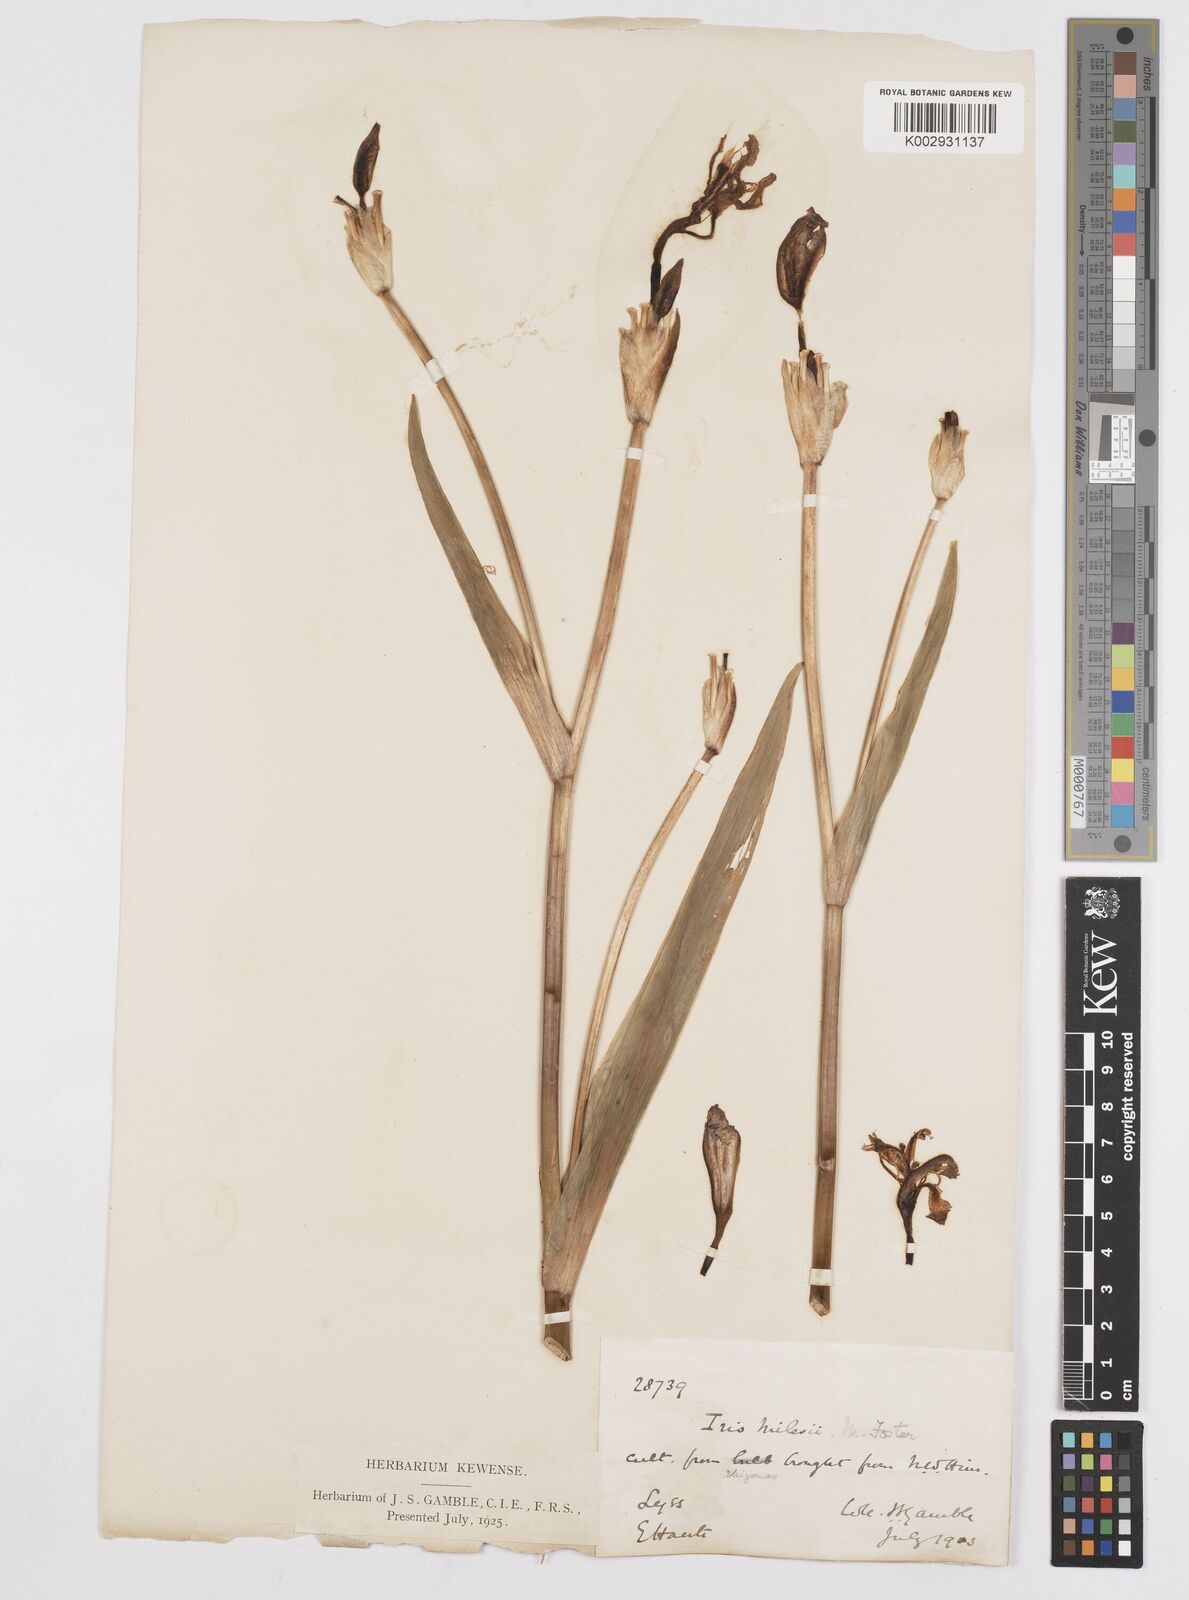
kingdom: Plantae
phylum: Tracheophyta
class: Liliopsida
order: Asparagales
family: Iridaceae
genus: Iris
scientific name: Iris milesii
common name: Red-flower iris
